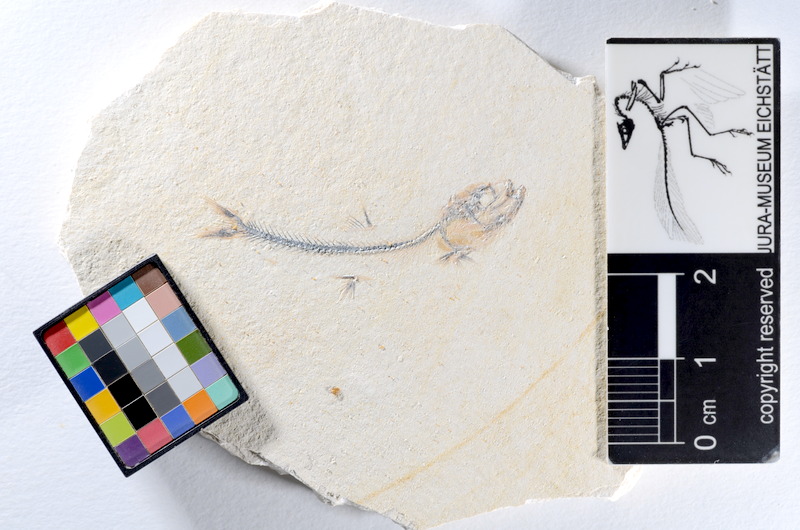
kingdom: Animalia
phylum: Chordata
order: Salmoniformes
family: Orthogonikleithridae
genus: Orthogonikleithrus
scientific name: Orthogonikleithrus hoelli
